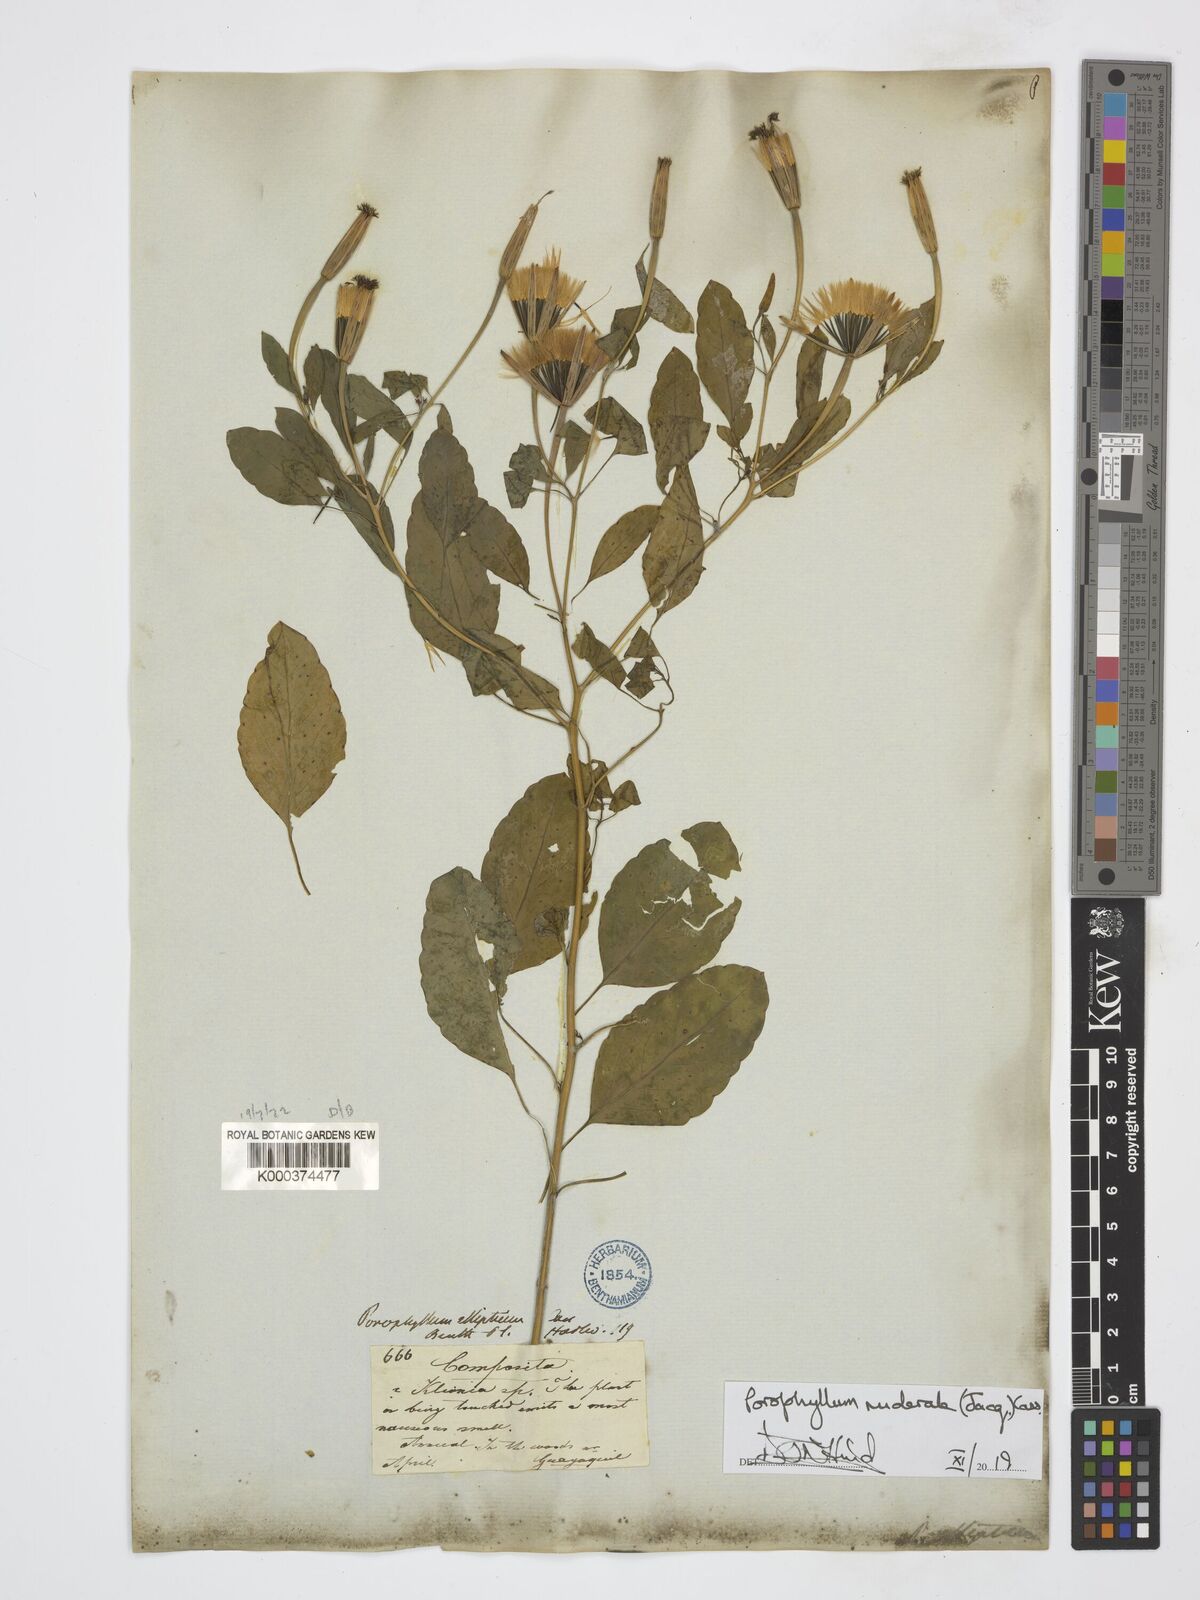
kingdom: Plantae
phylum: Tracheophyta
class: Magnoliopsida
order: Asterales
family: Asteraceae
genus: Porophyllum
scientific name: Porophyllum ruderale
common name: Yerba porosa
